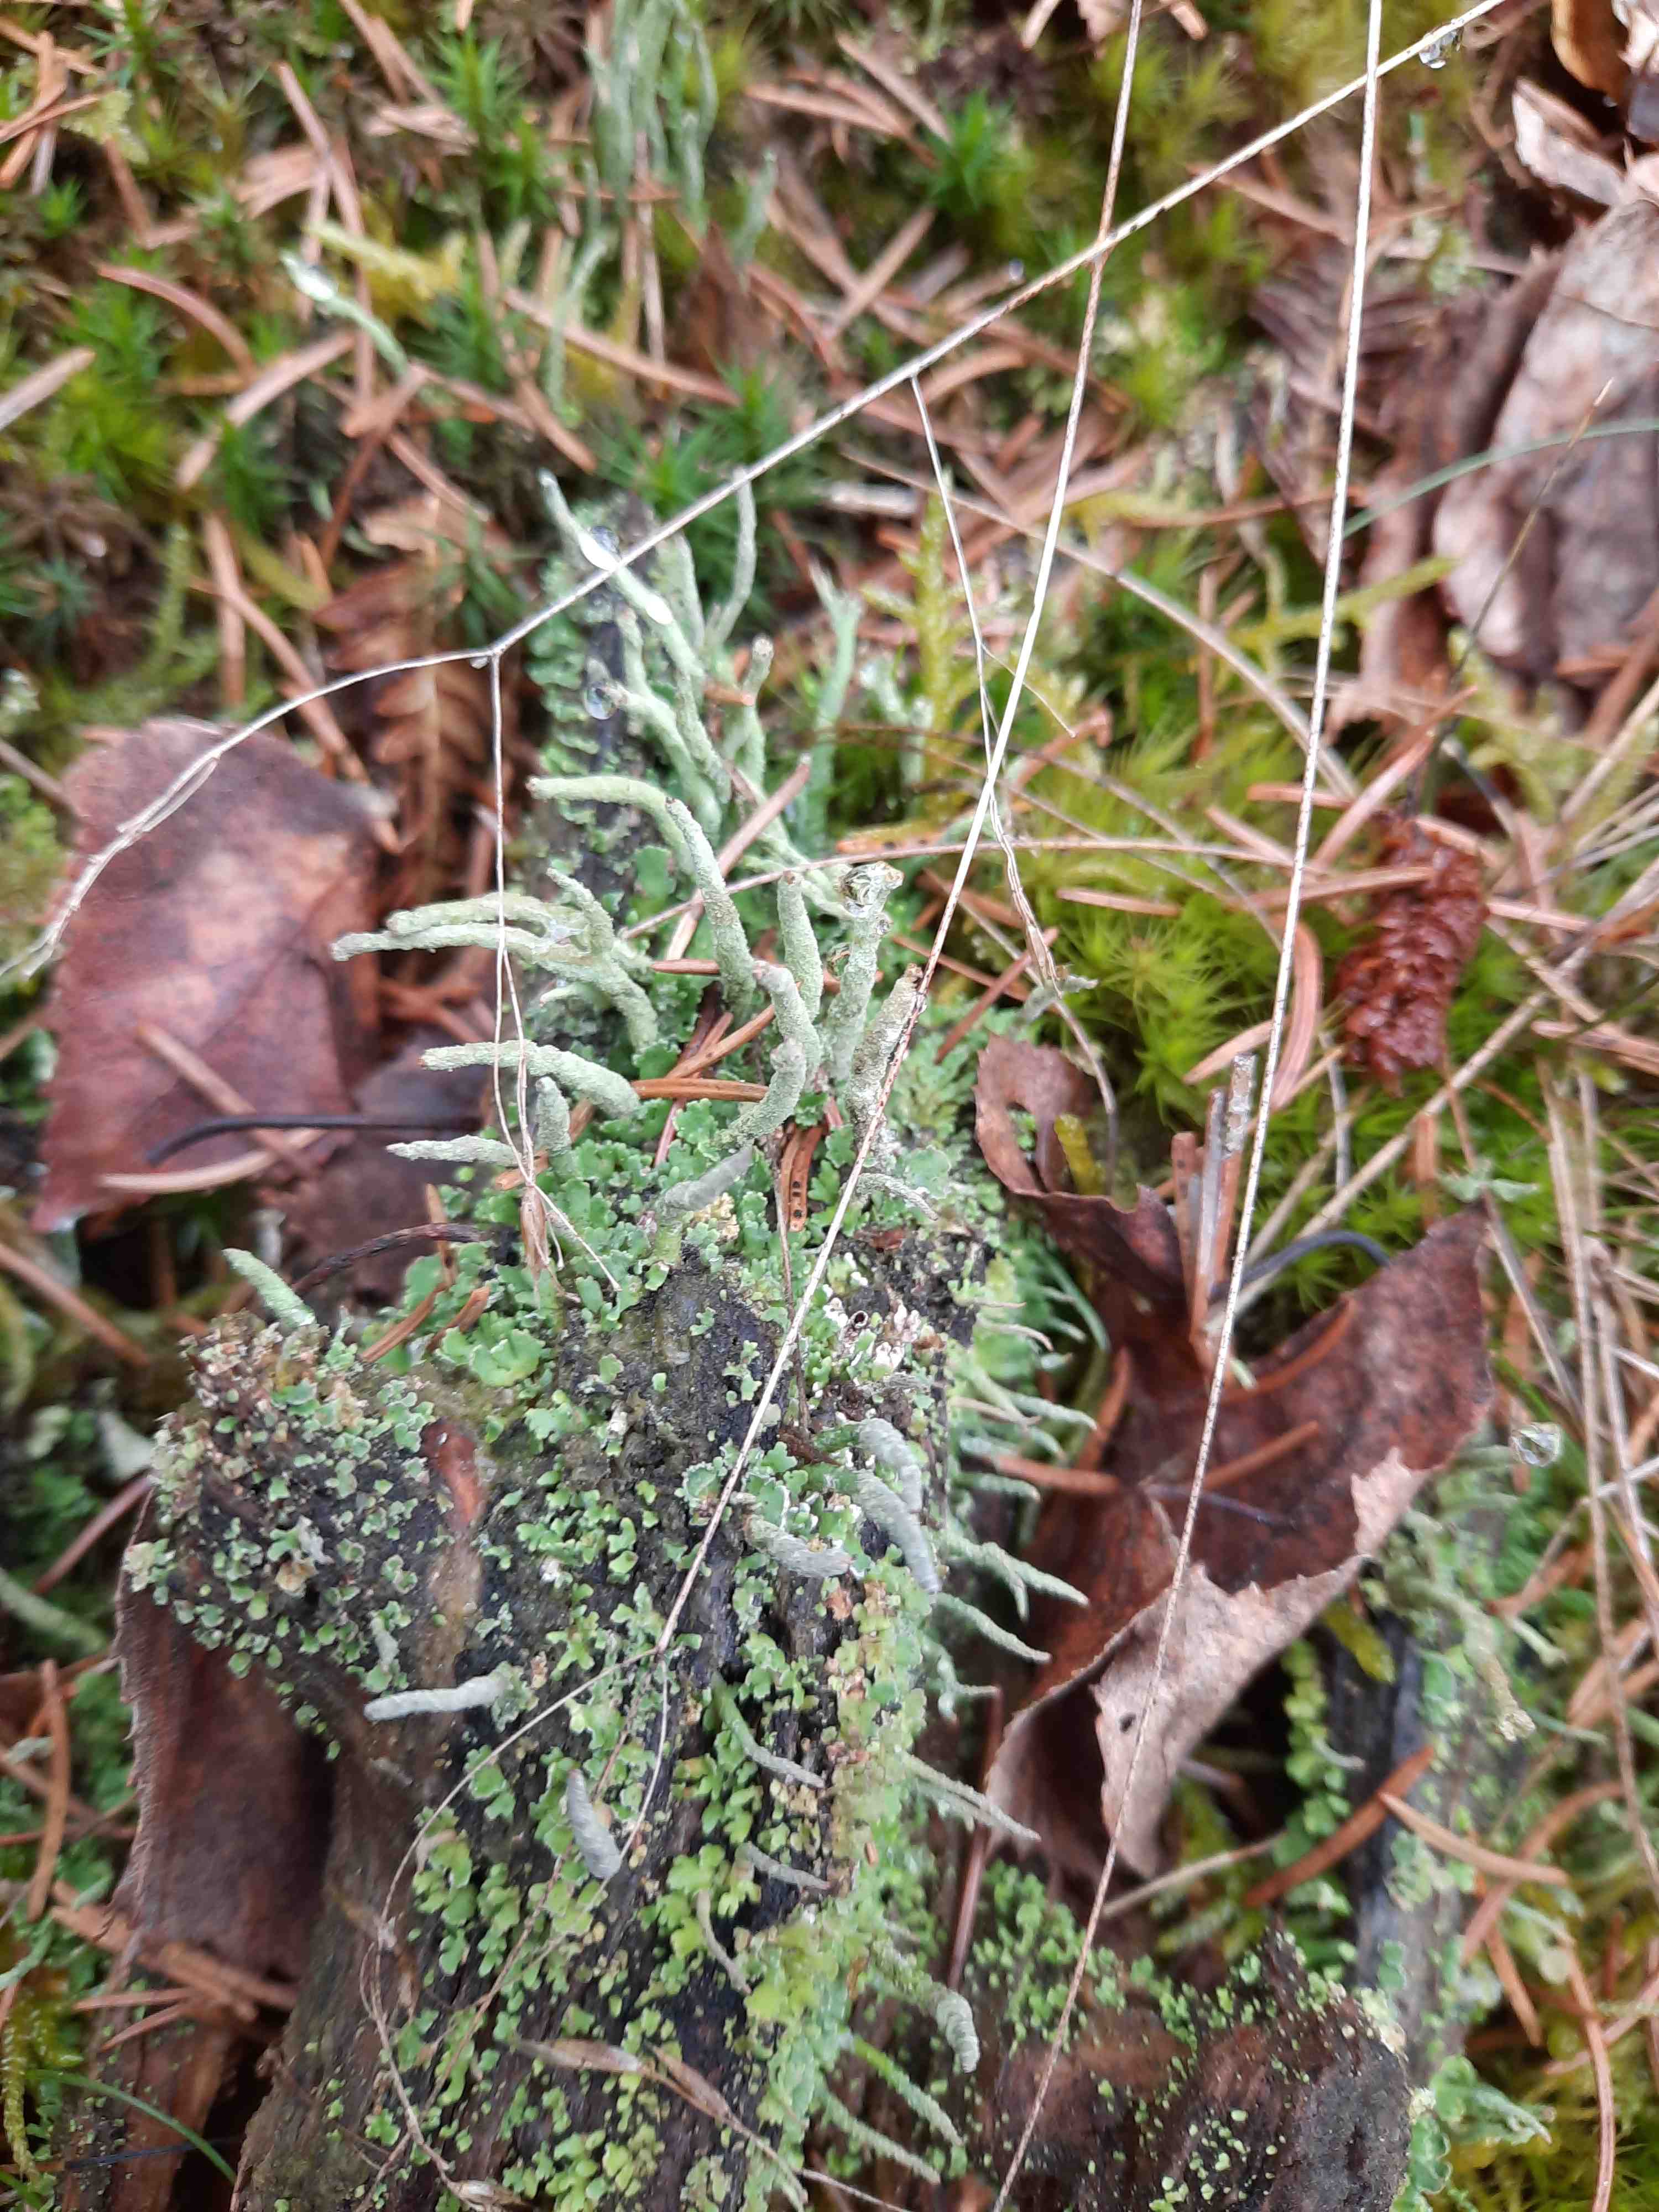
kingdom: Fungi
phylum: Ascomycota
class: Lecanoromycetes
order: Lecanorales
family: Cladoniaceae
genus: Cladonia
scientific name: Cladonia coniocraea
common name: træfods-bægerlav
